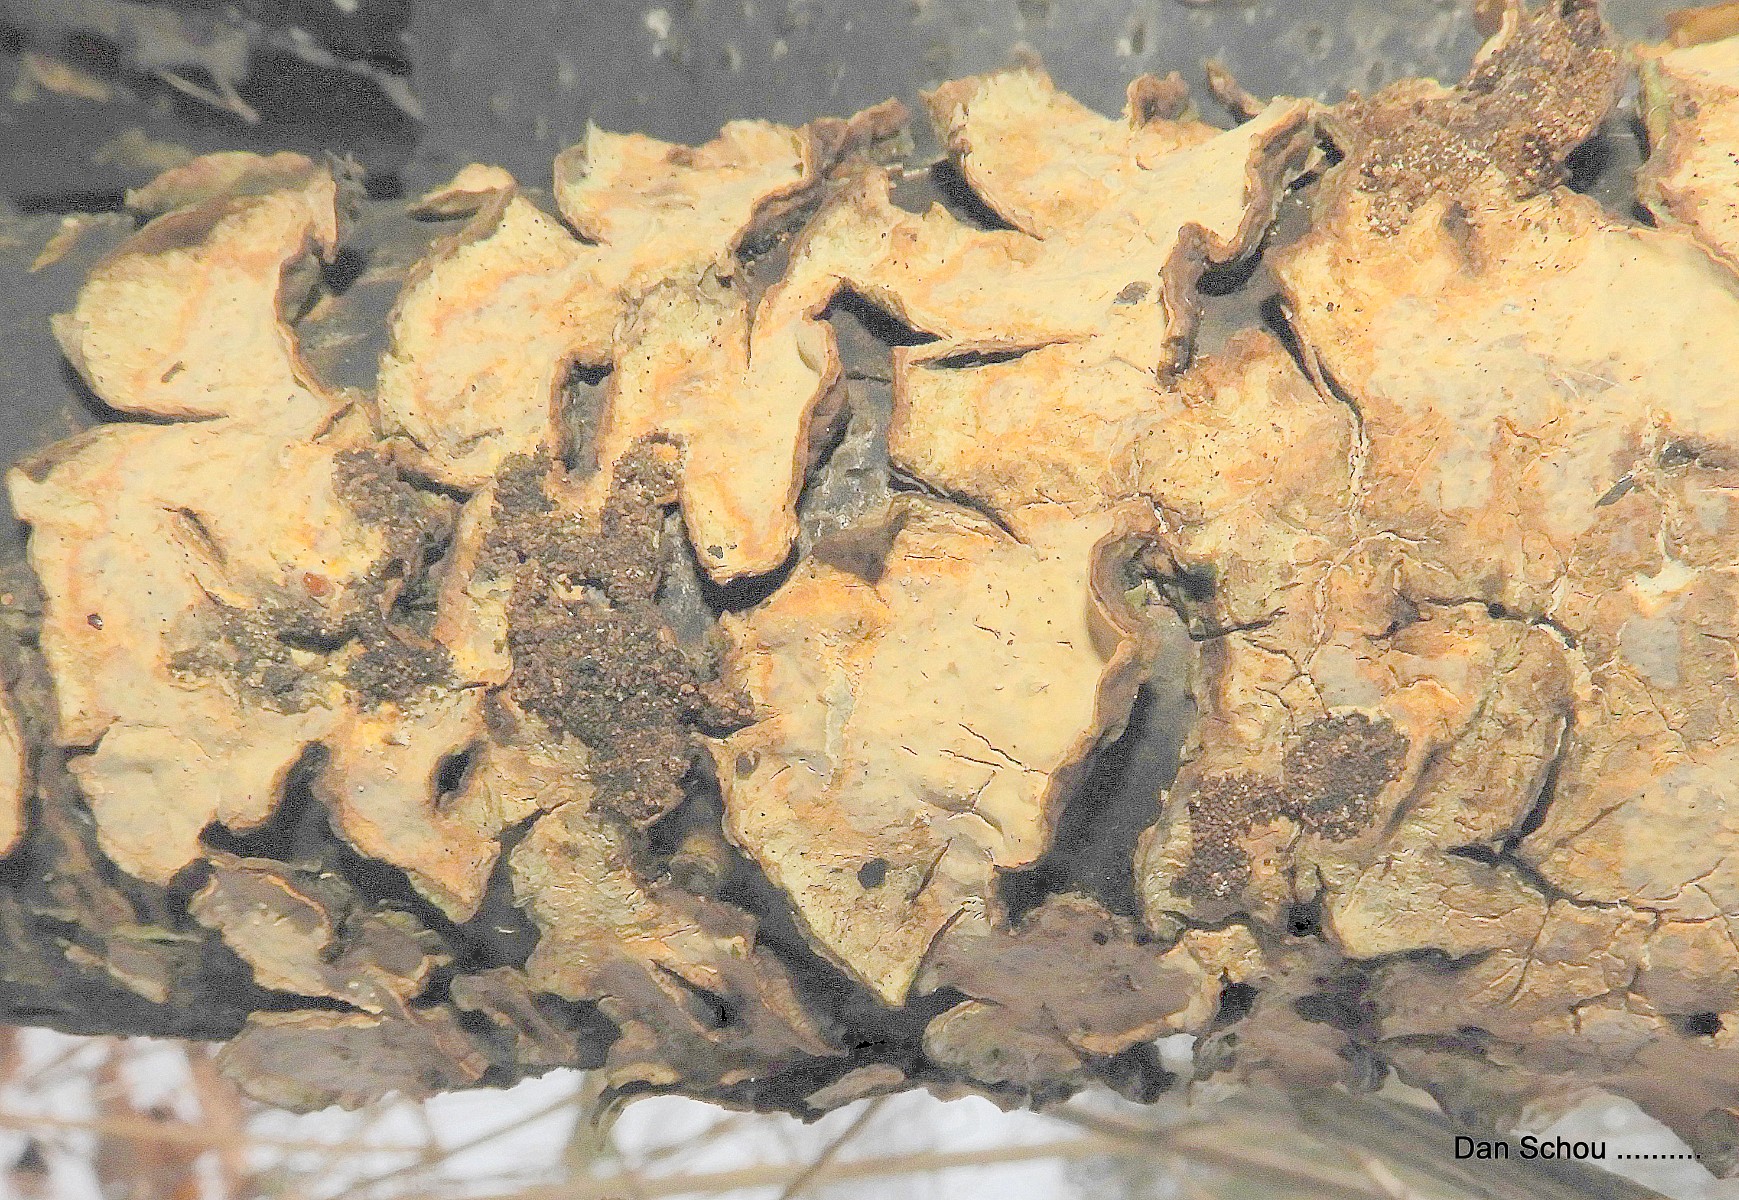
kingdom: Fungi
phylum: Basidiomycota
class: Agaricomycetes
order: Russulales
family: Stereaceae
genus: Stereum
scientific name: Stereum rugosum
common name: rynket lædersvamp
